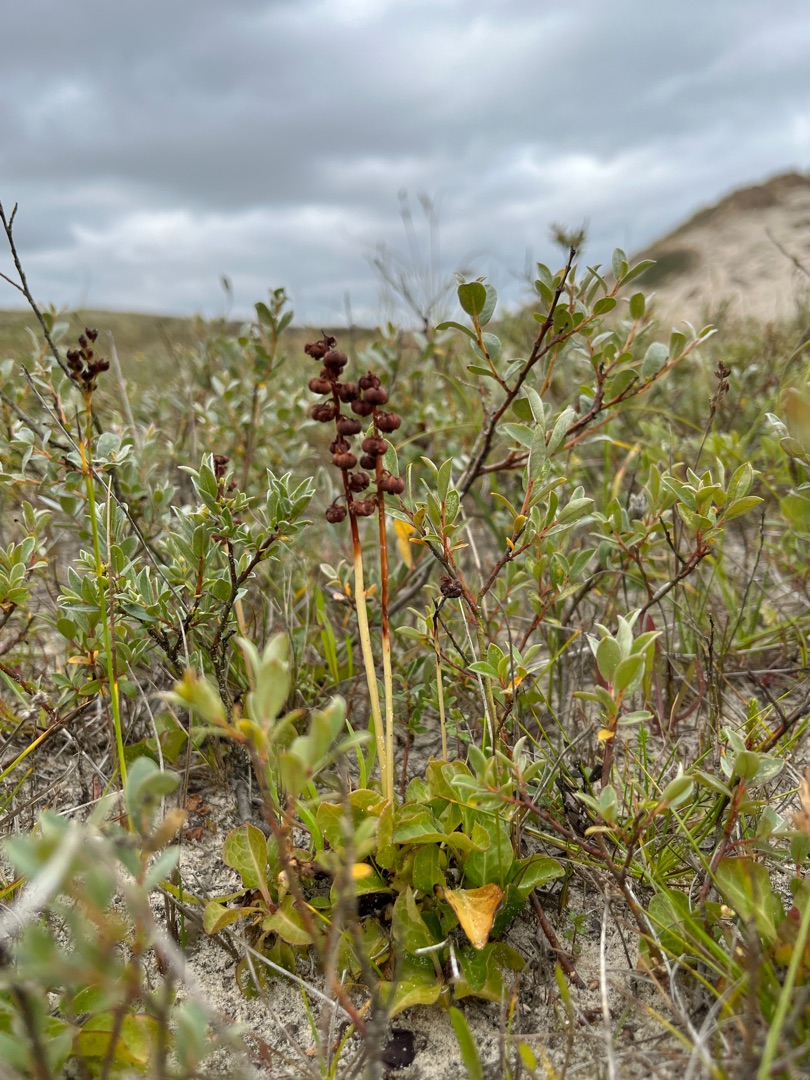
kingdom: Plantae
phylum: Tracheophyta
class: Magnoliopsida
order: Ericales
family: Ericaceae
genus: Pyrola
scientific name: Pyrola minor
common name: Liden vintergrøn
